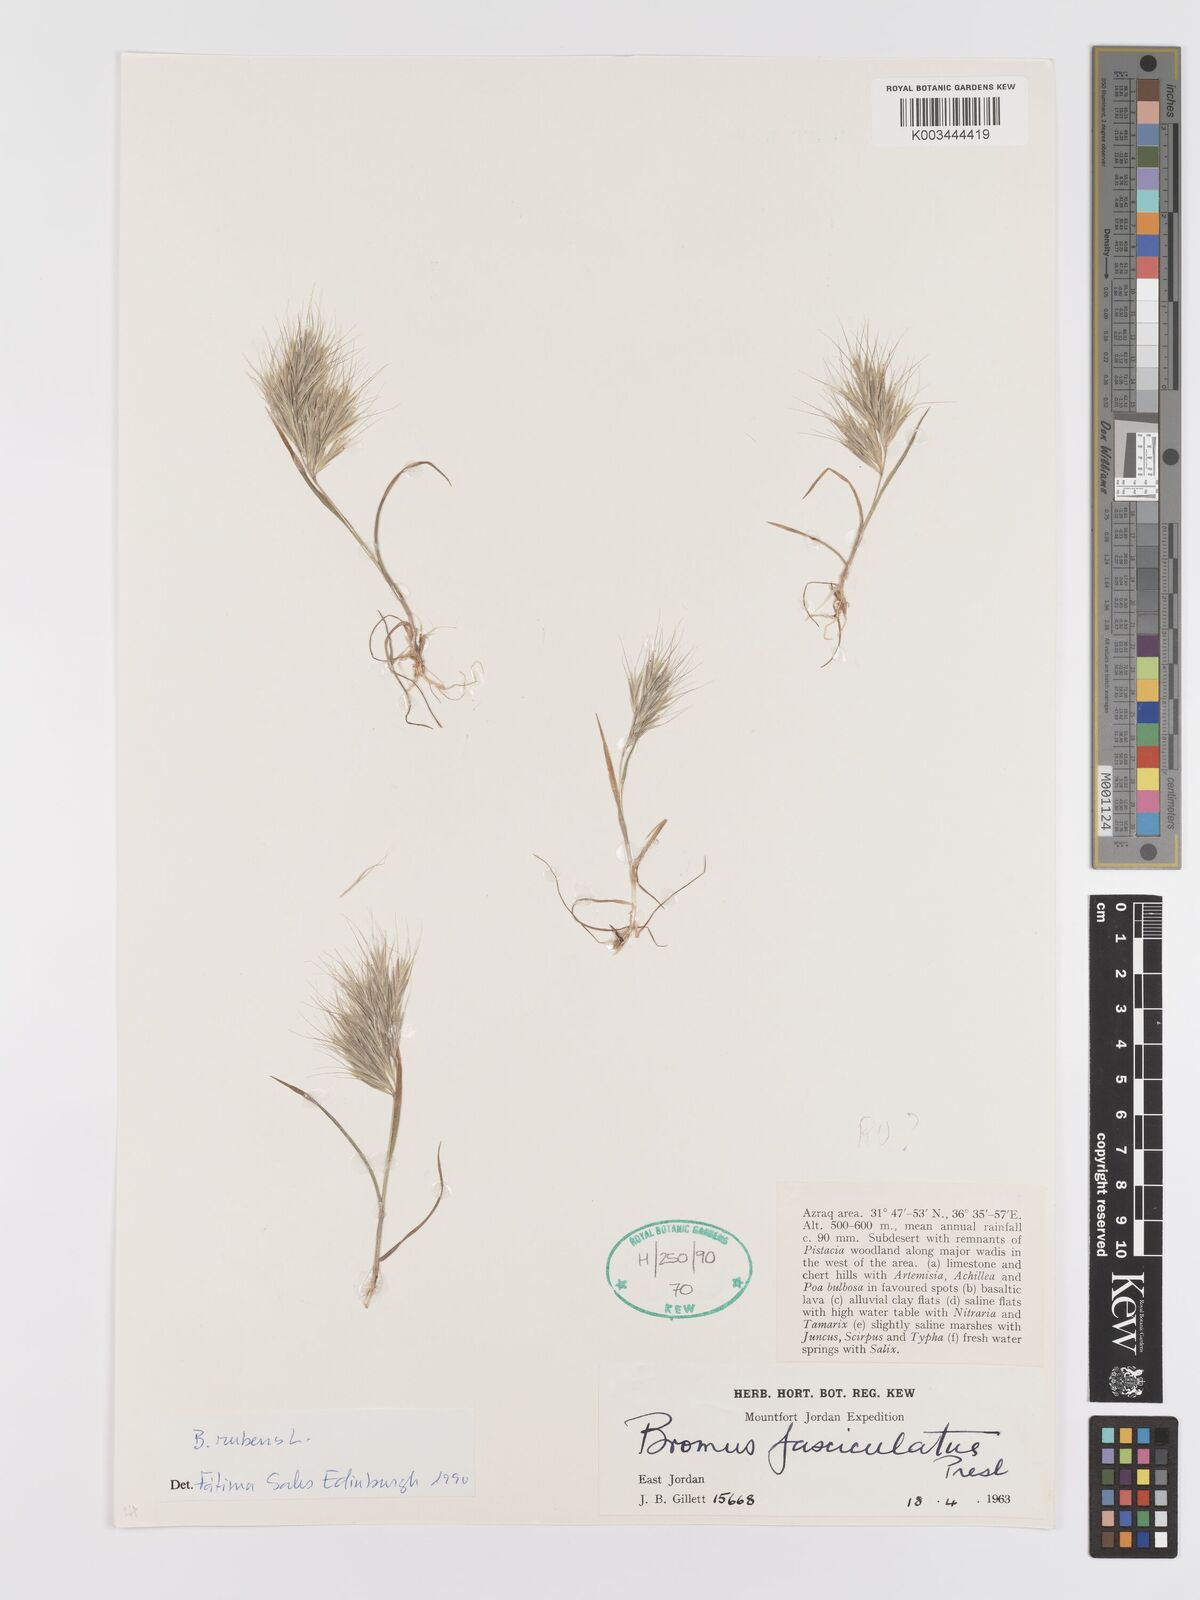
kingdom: Plantae
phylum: Tracheophyta
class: Liliopsida
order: Poales
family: Poaceae
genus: Bromus
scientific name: Bromus rubens
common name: Red brome
